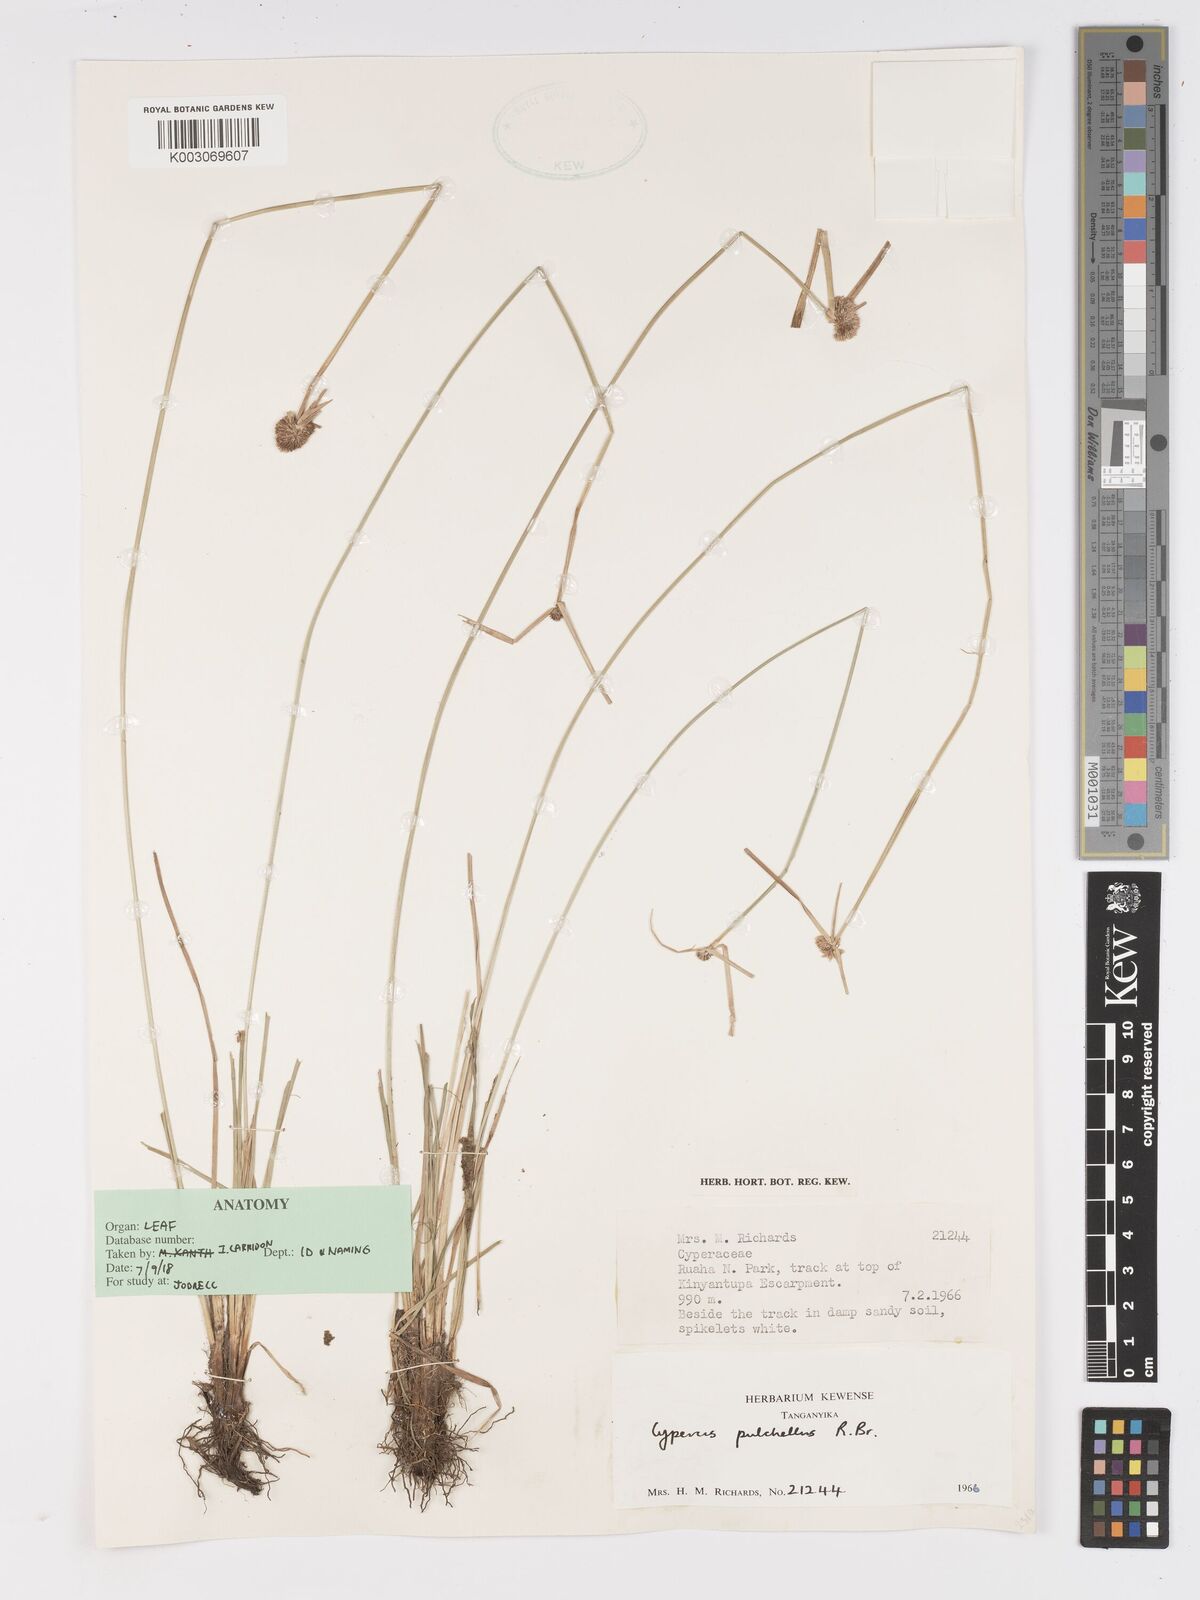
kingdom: Plantae
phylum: Tracheophyta
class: Liliopsida
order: Poales
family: Cyperaceae
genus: Cyperus
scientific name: Cyperus pulchellus
